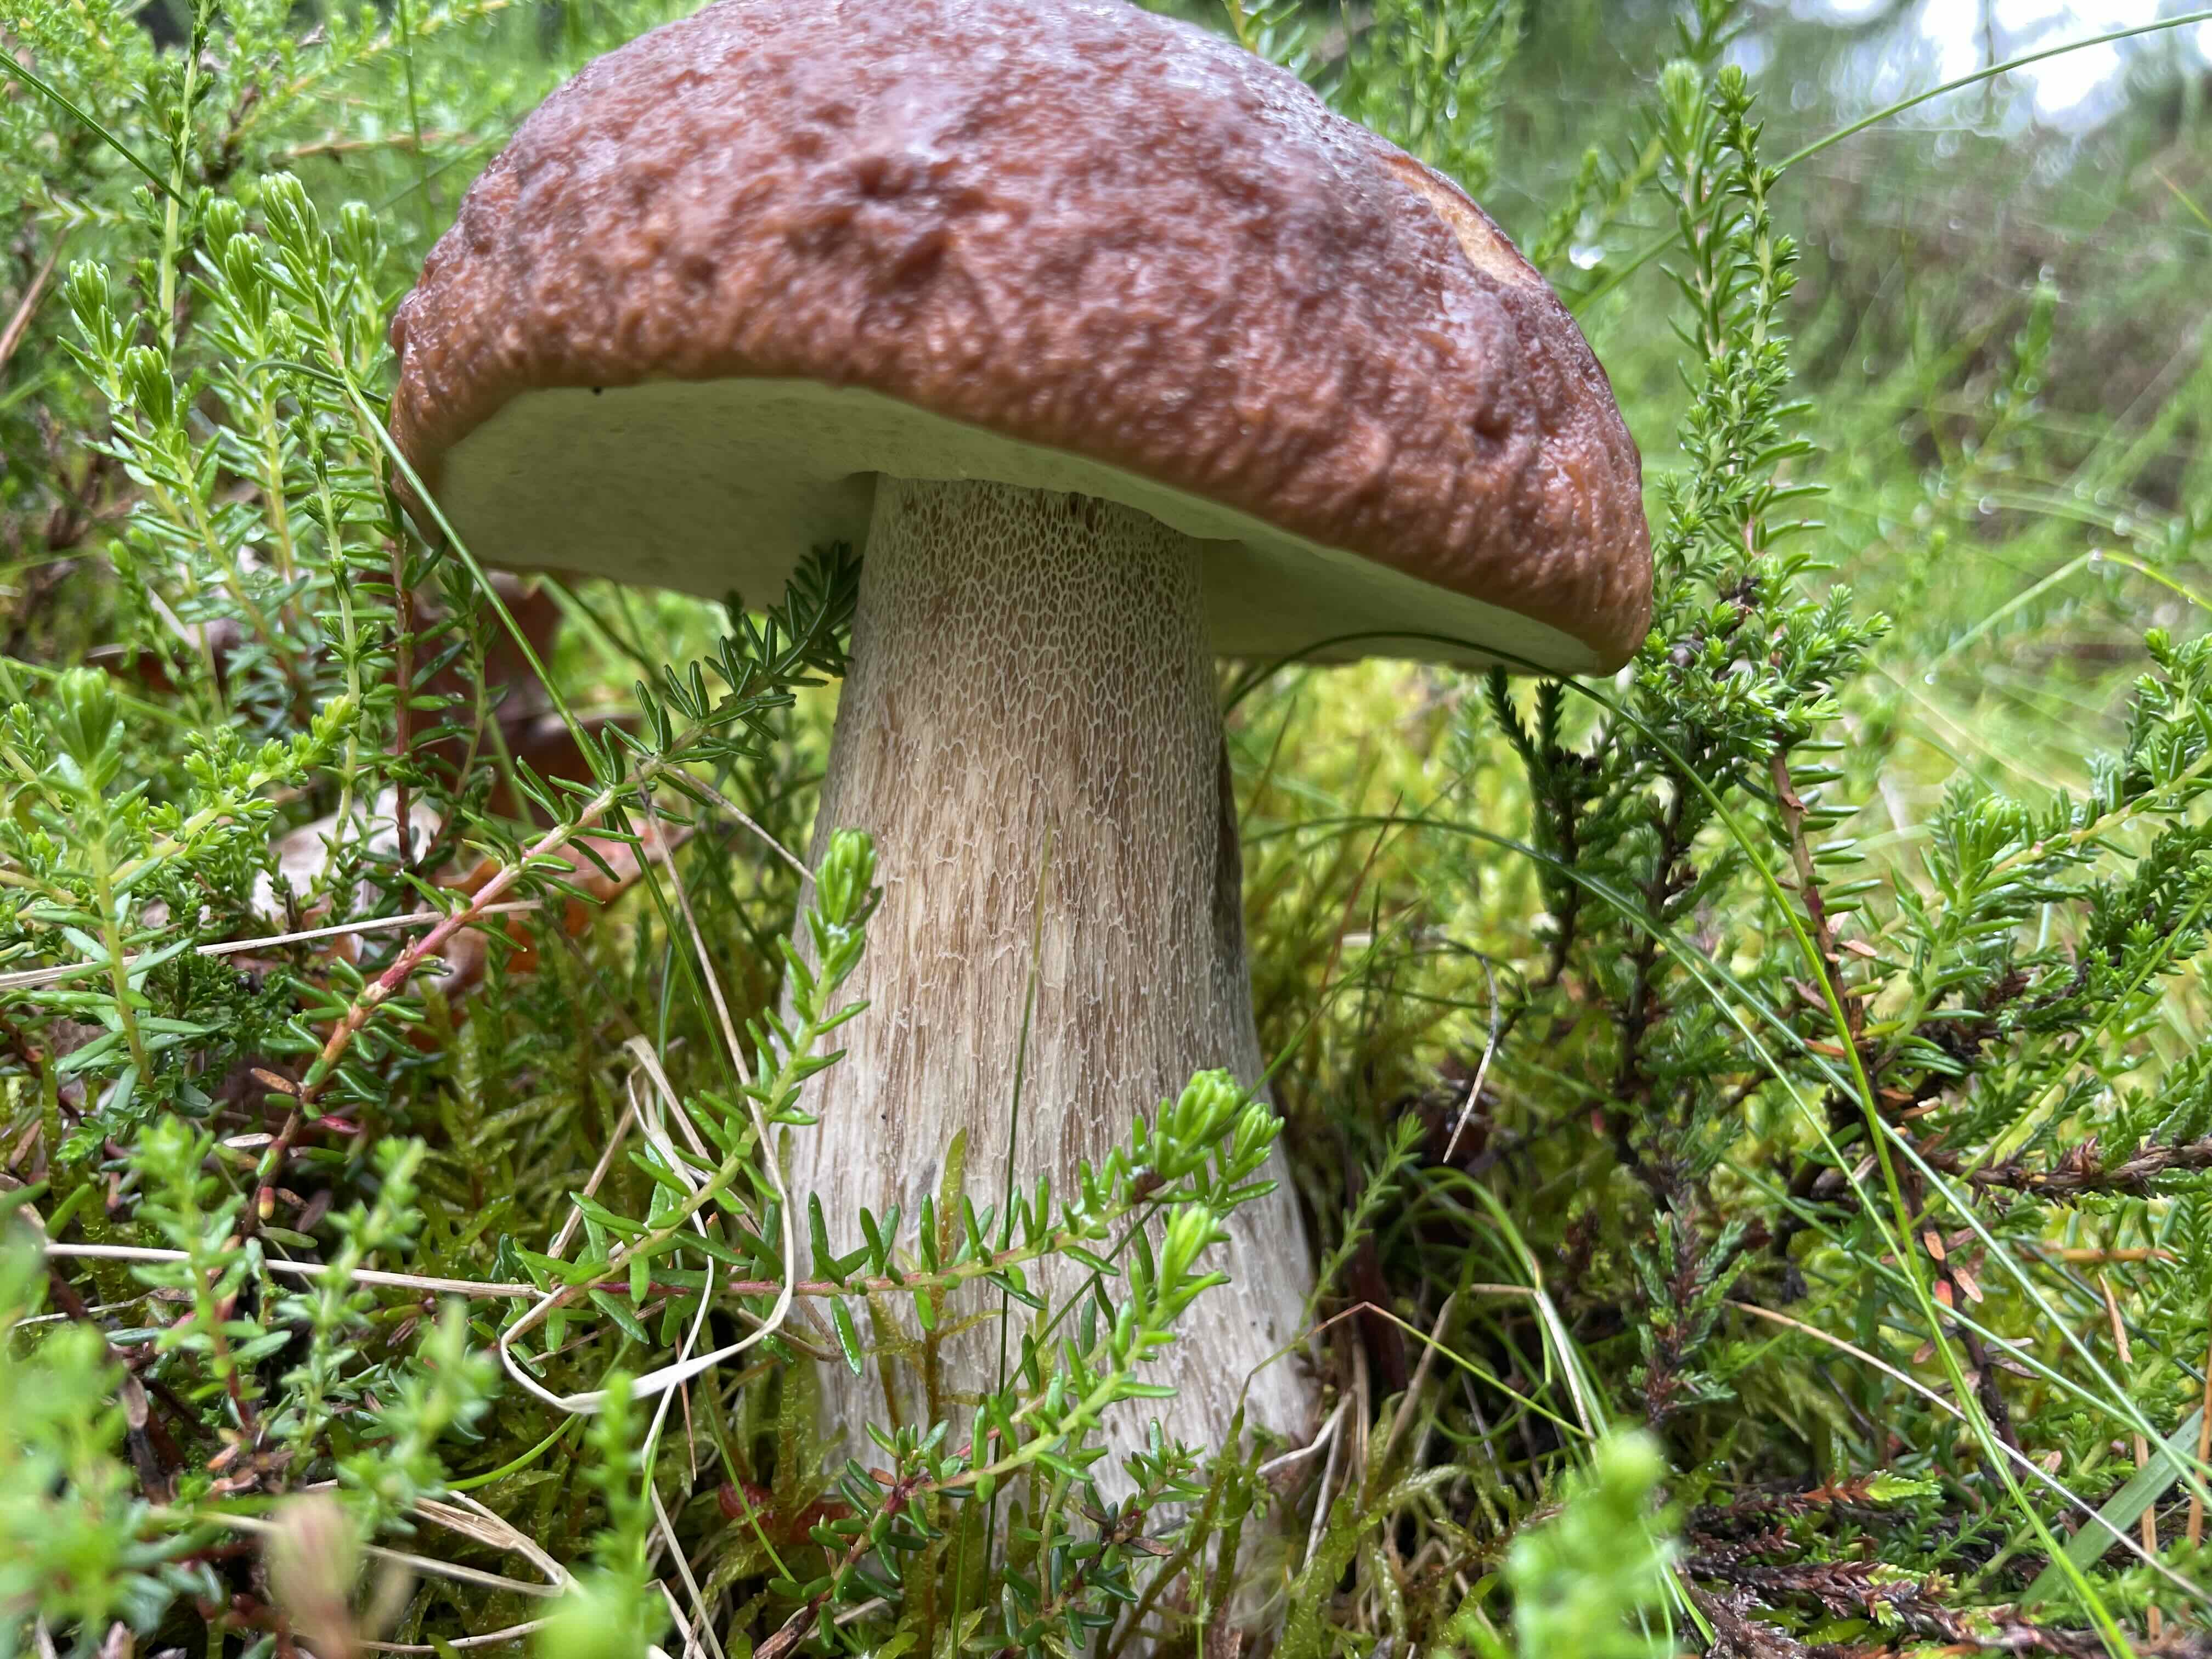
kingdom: Fungi
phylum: Basidiomycota
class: Agaricomycetes
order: Boletales
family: Boletaceae
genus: Boletus
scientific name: Boletus edulis
